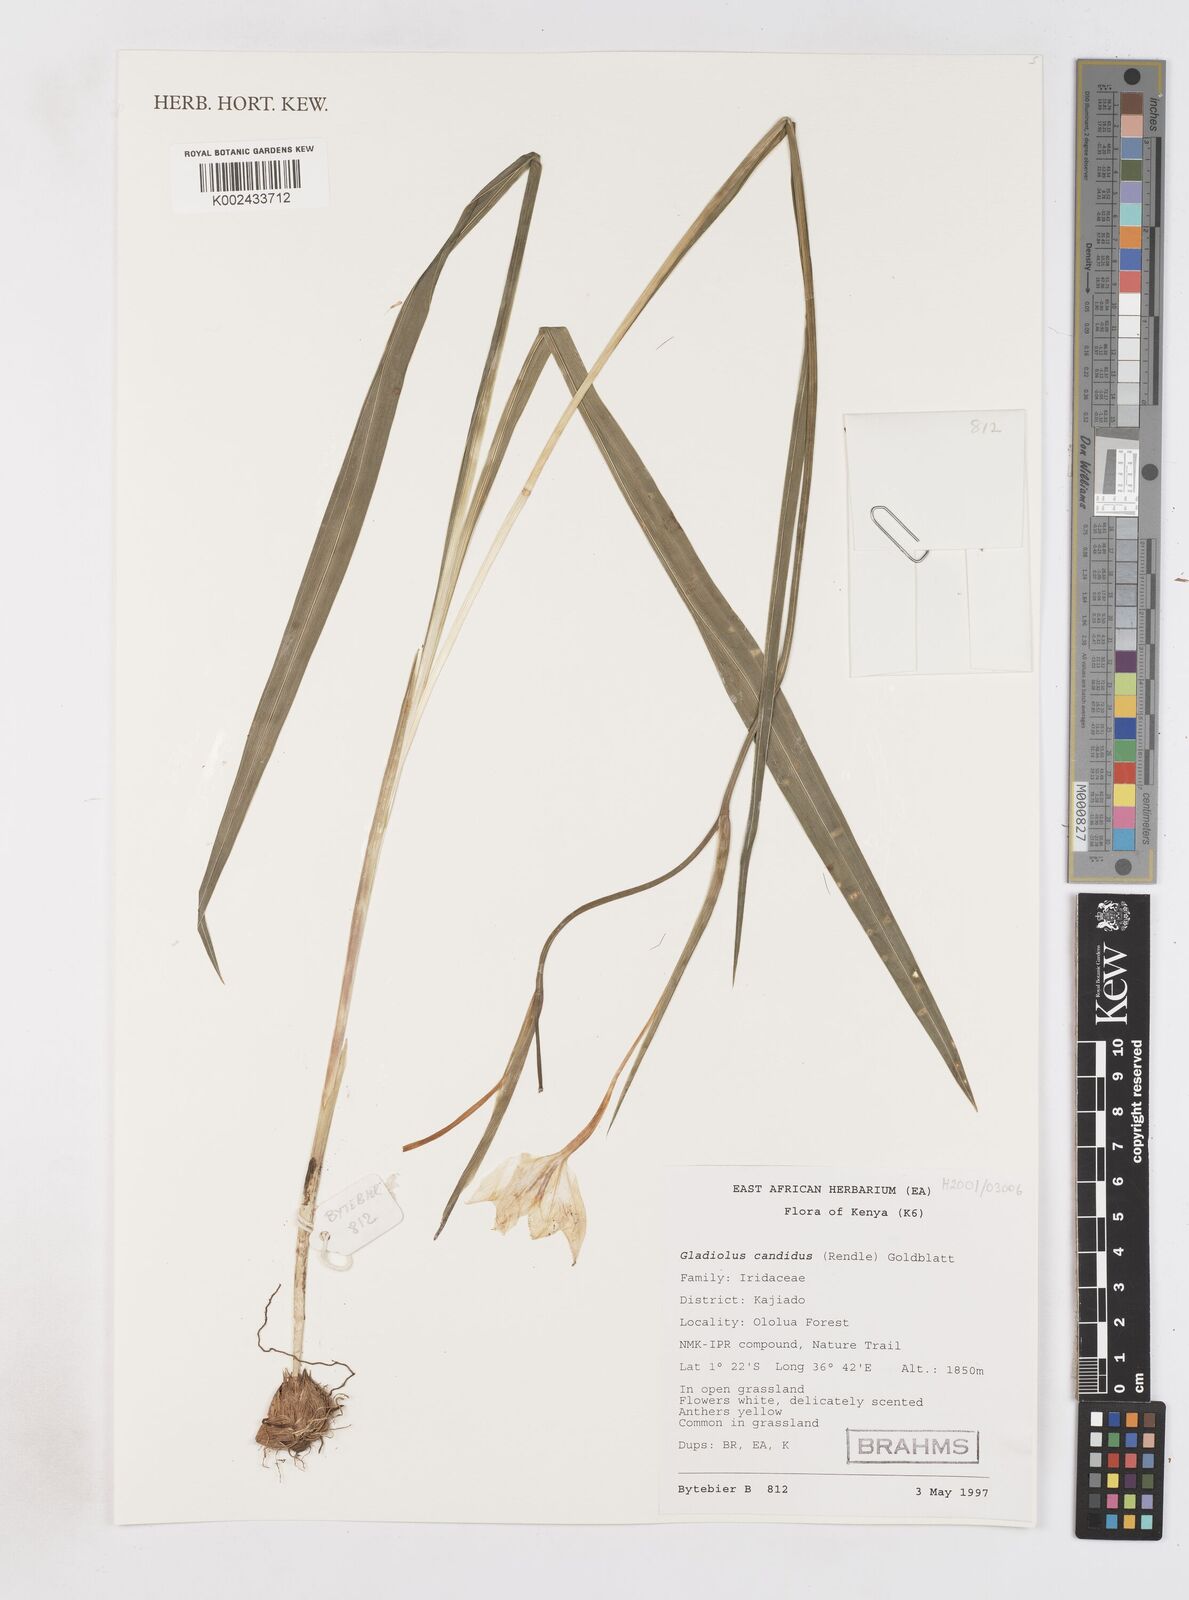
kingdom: Plantae
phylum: Tracheophyta
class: Liliopsida
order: Asparagales
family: Iridaceae
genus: Gladiolus
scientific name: Gladiolus candidus
